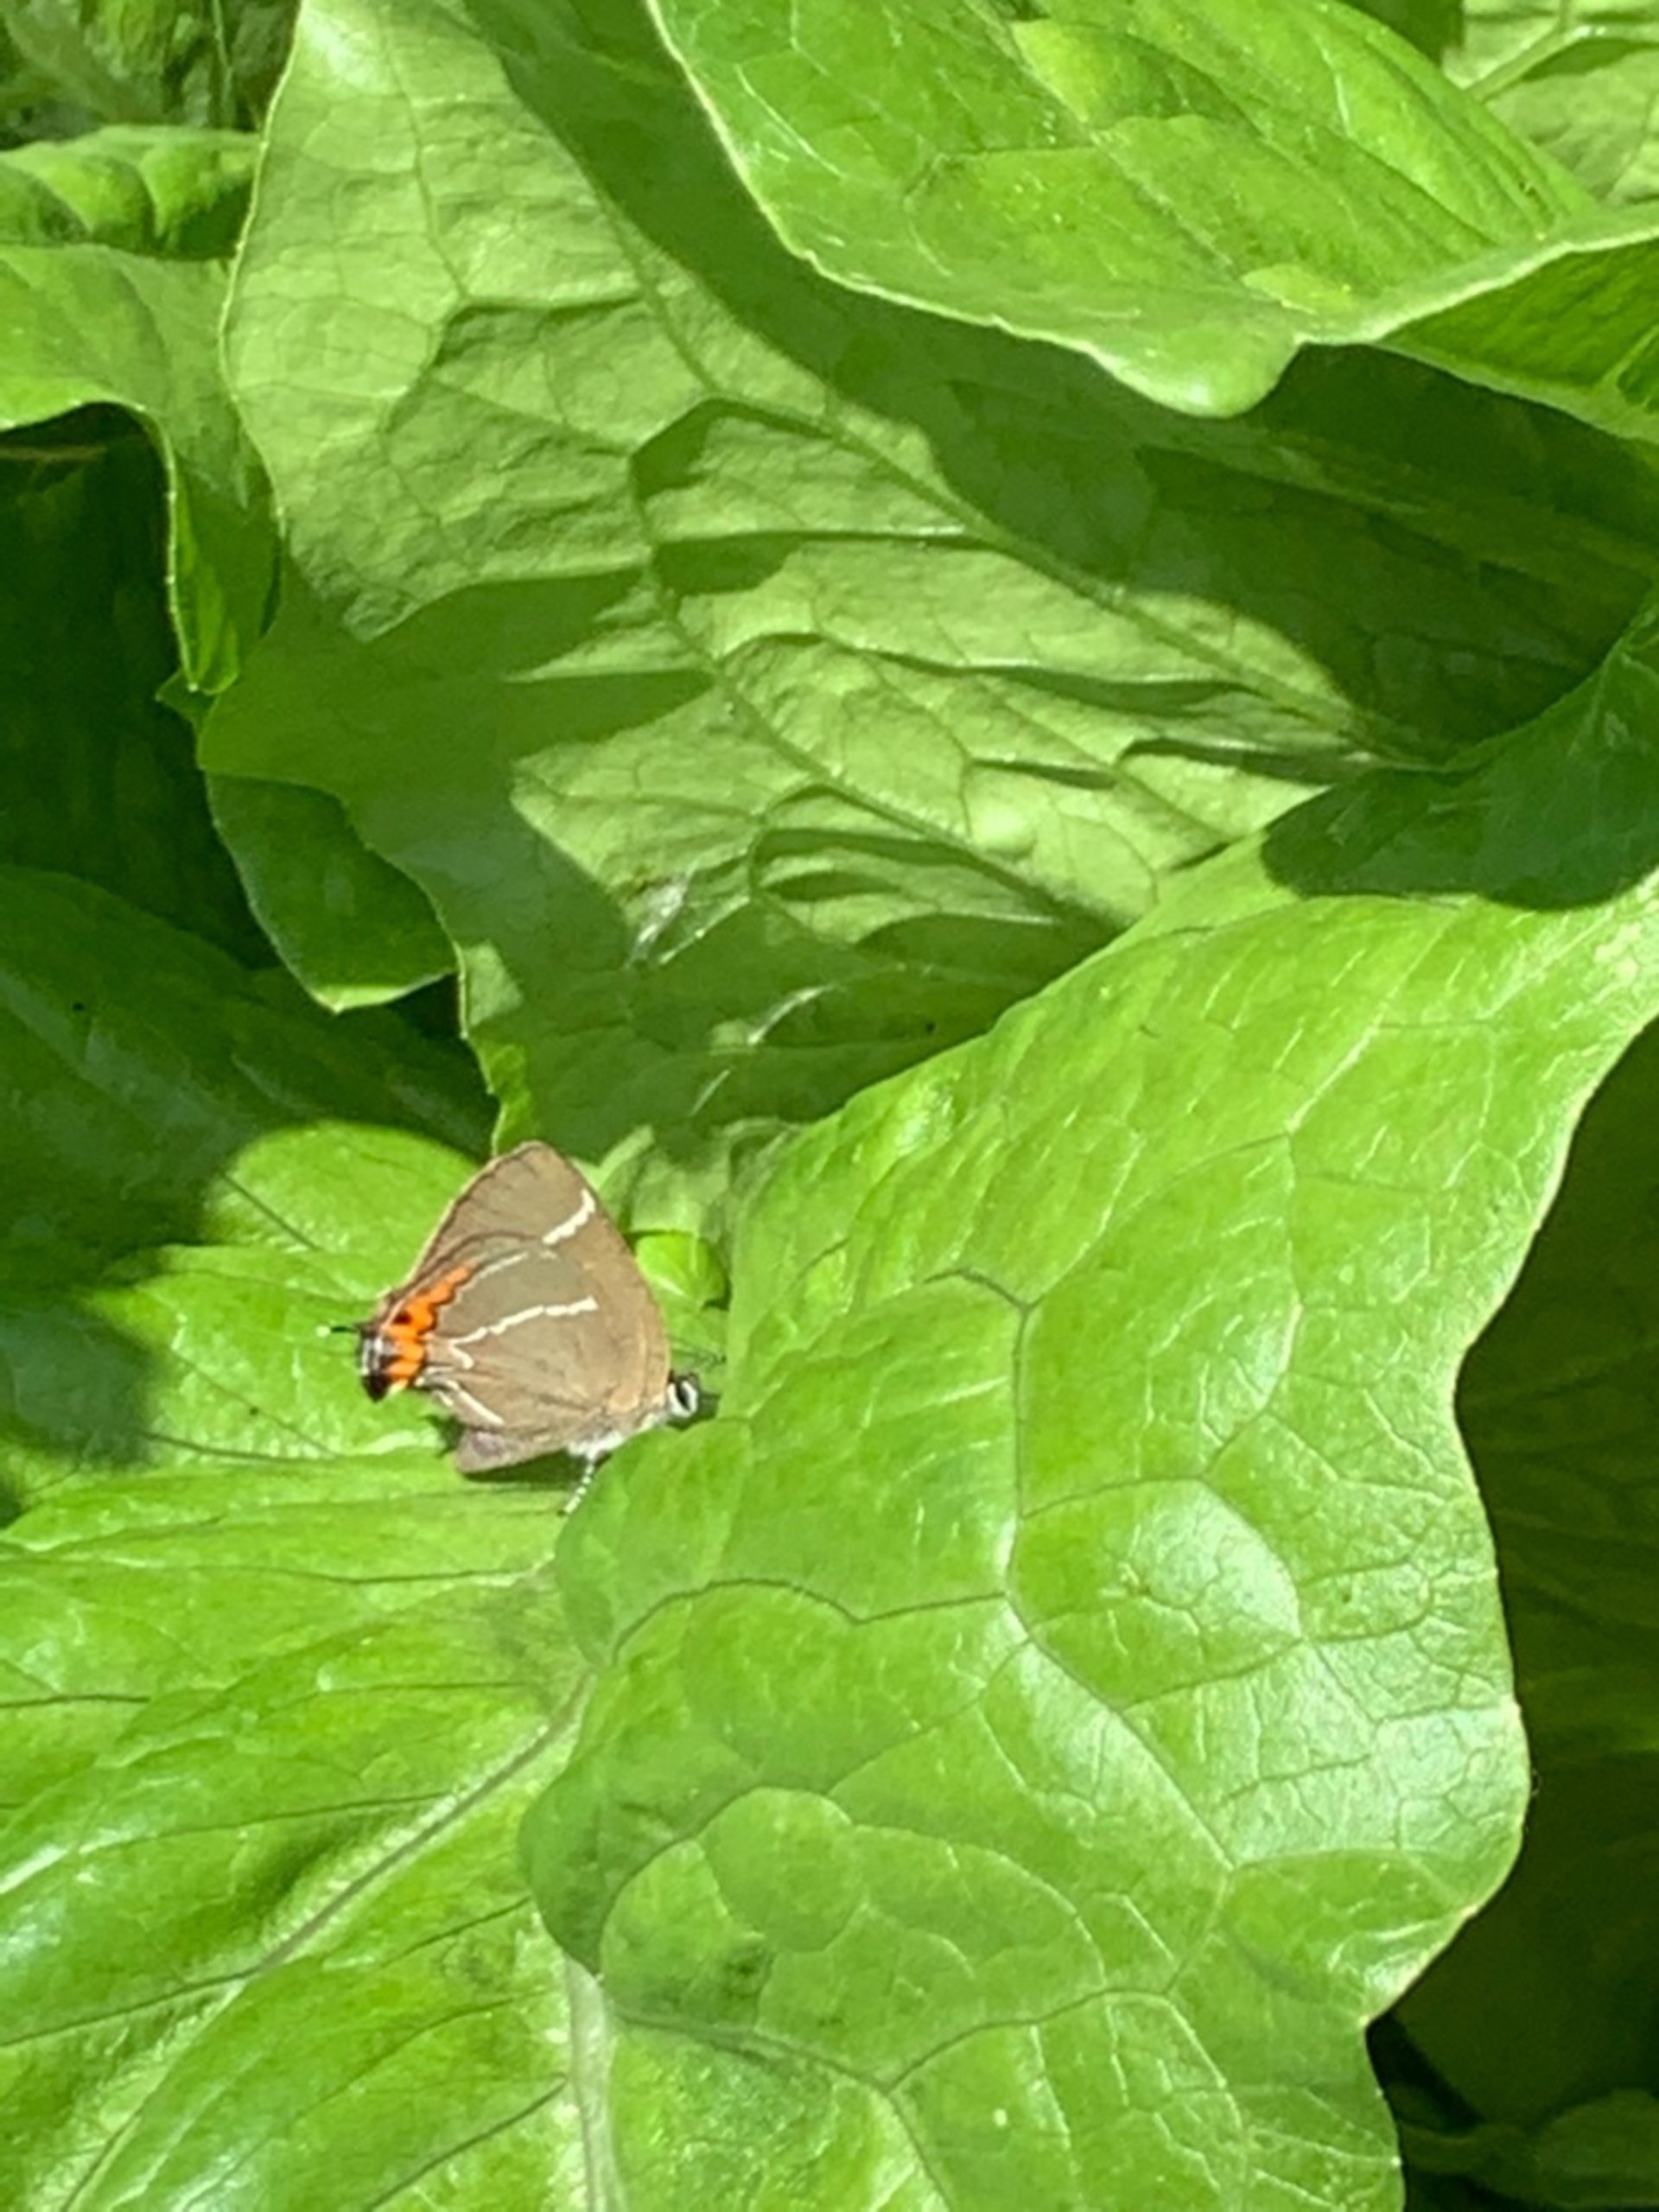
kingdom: Animalia
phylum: Arthropoda
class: Insecta
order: Lepidoptera
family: Lycaenidae
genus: Satyrium
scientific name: Satyrium w-album
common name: Det hvide W
